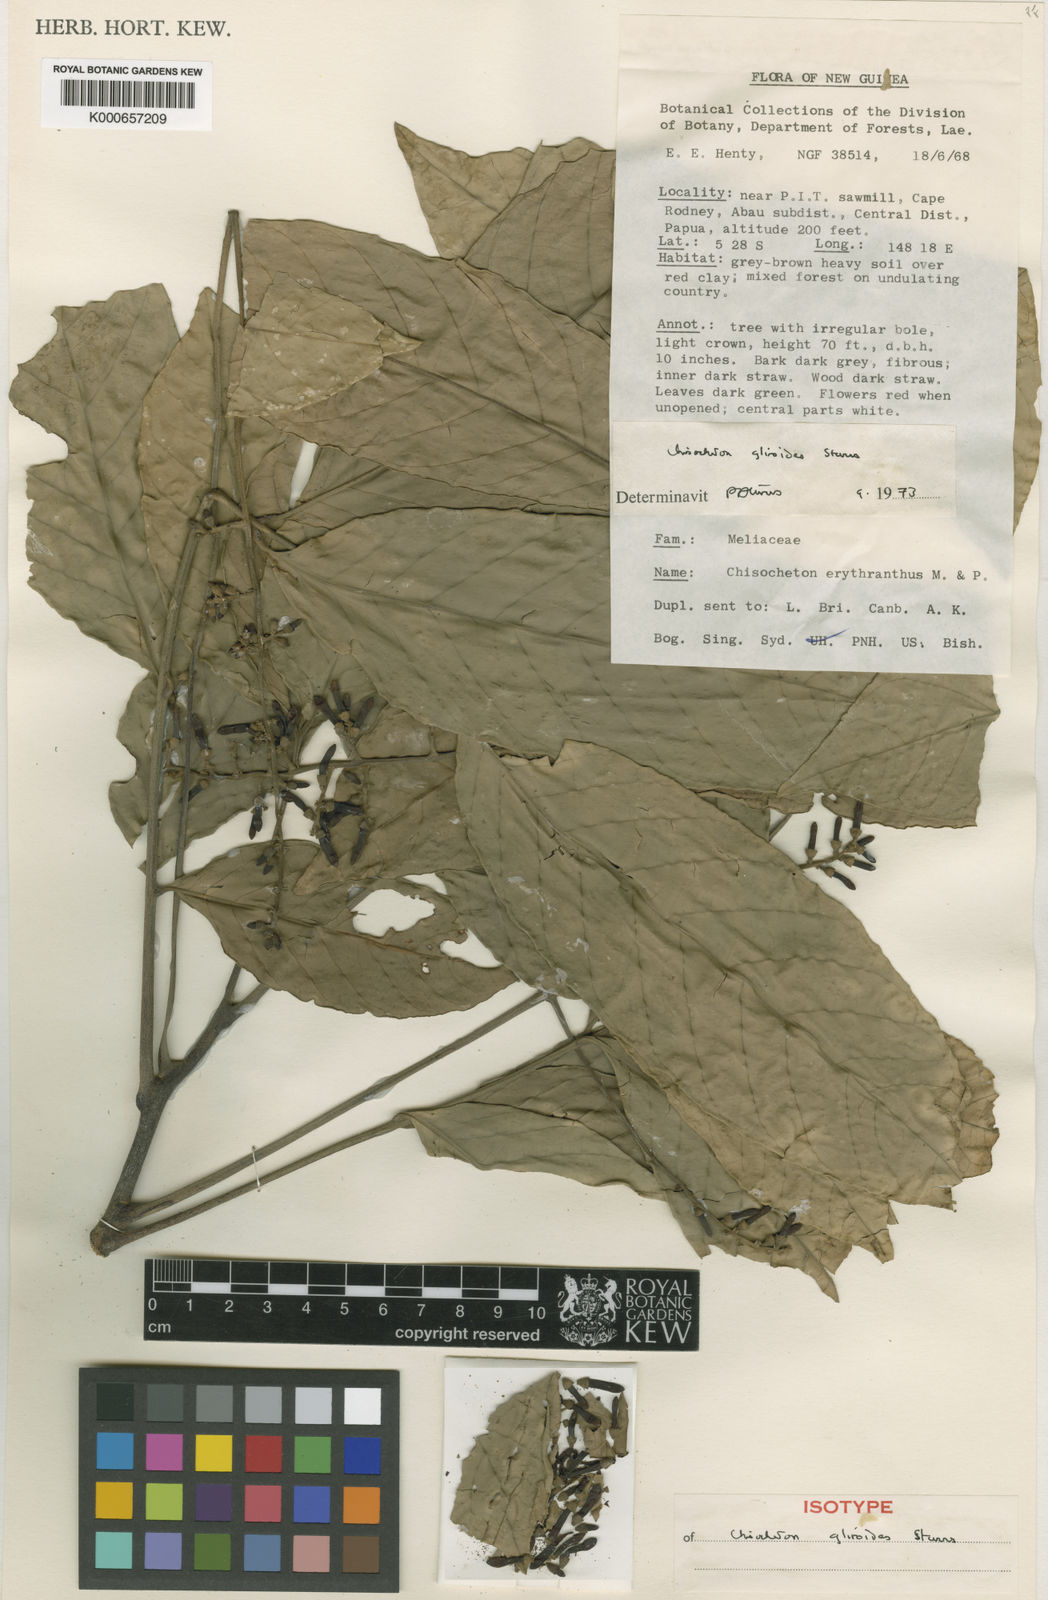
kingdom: Plantae
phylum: Tracheophyta
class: Magnoliopsida
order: Sapindales
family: Meliaceae
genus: Chisocheton
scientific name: Chisocheton gliroides
